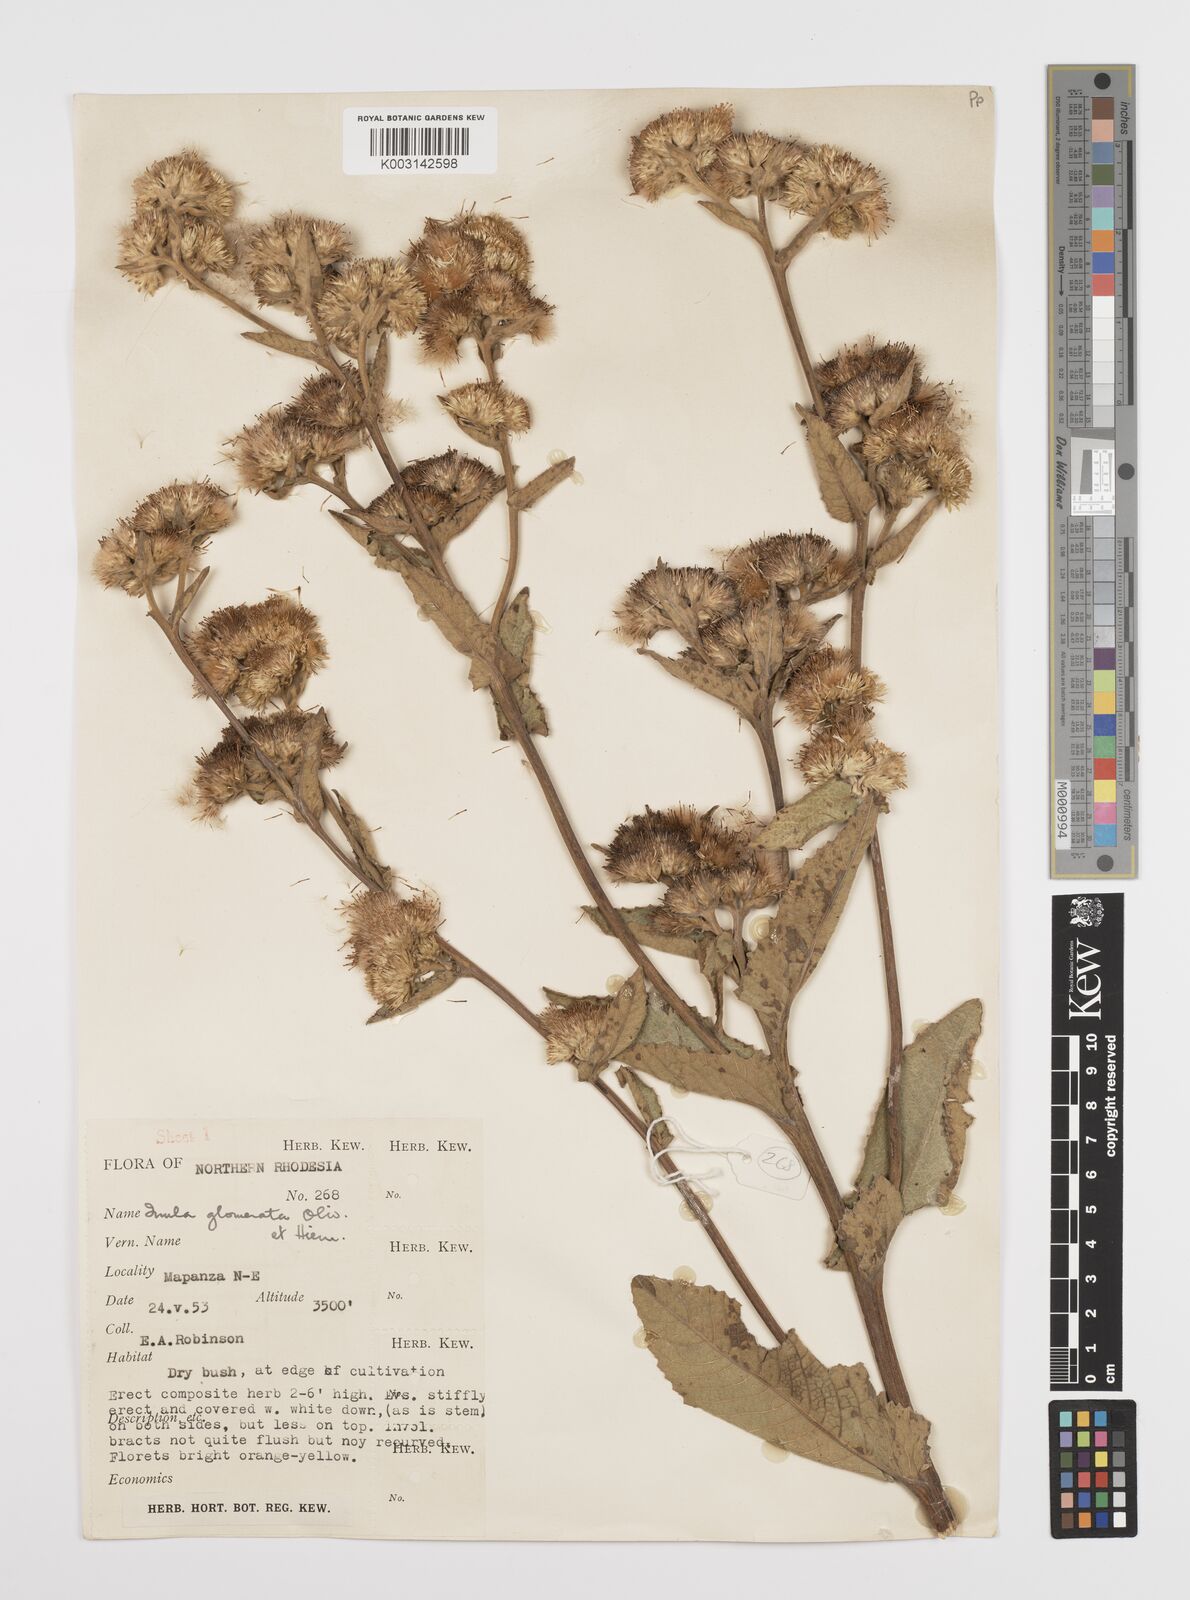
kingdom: Plantae
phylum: Tracheophyta
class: Magnoliopsida
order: Asterales
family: Asteraceae
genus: Inula
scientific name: Inula glomerata
